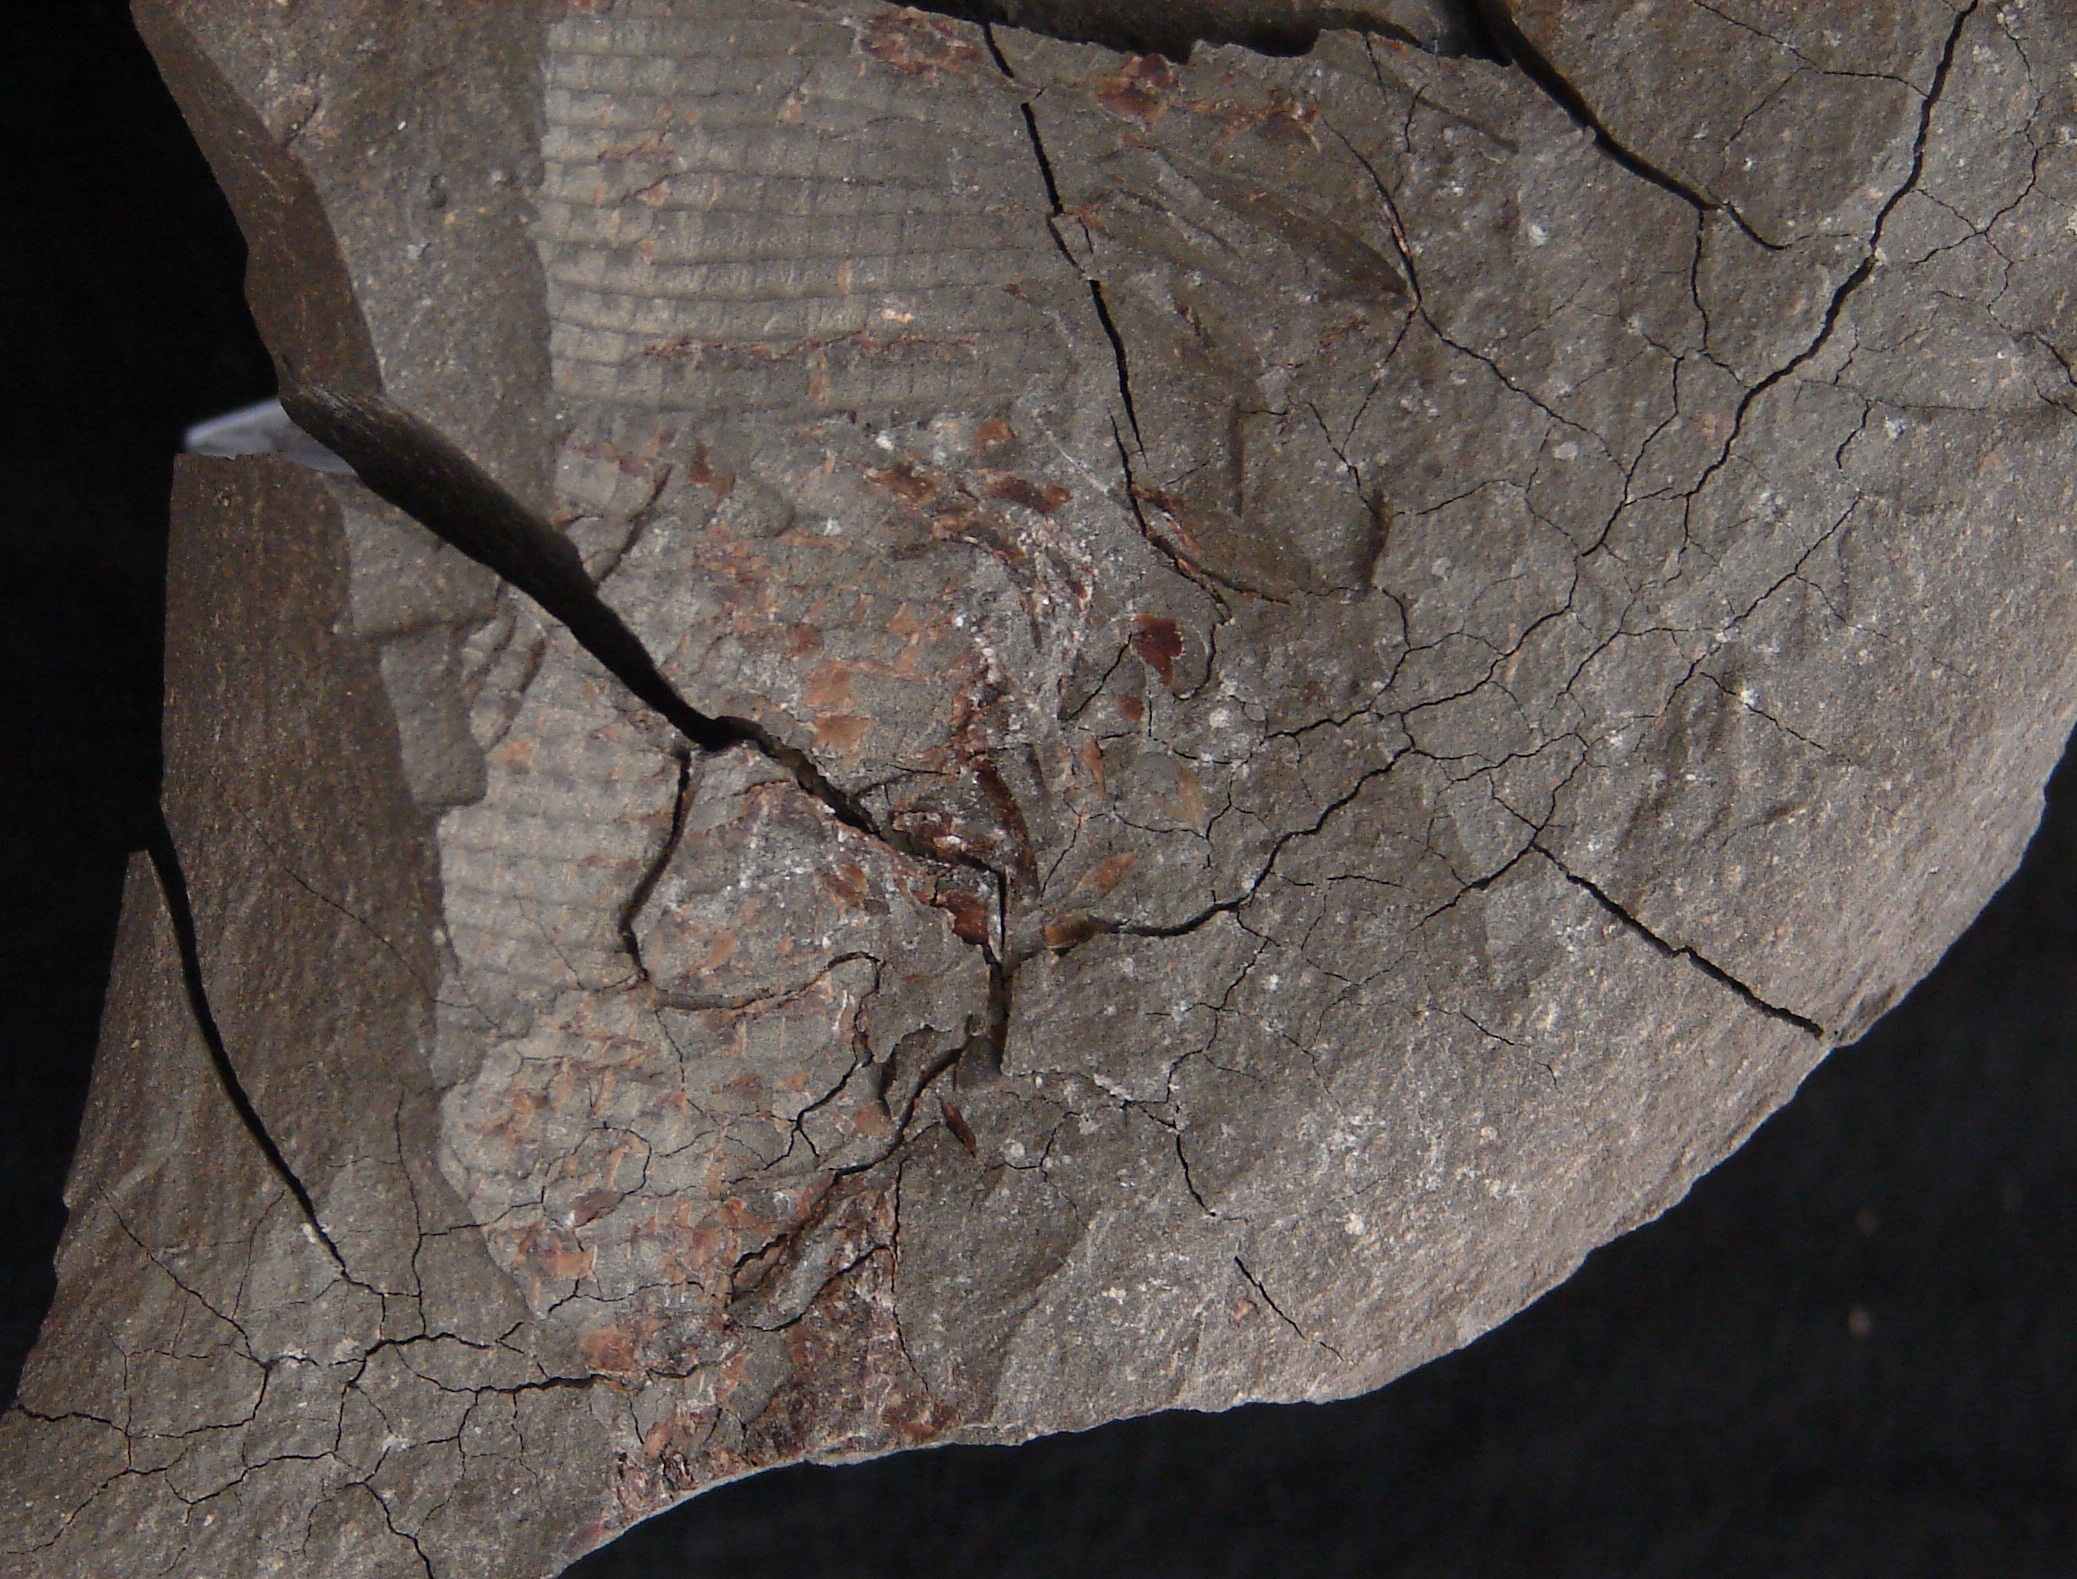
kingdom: Animalia
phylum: Chordata
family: Pachycormidae
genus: Pachycormus
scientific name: Pachycormus macropterus
